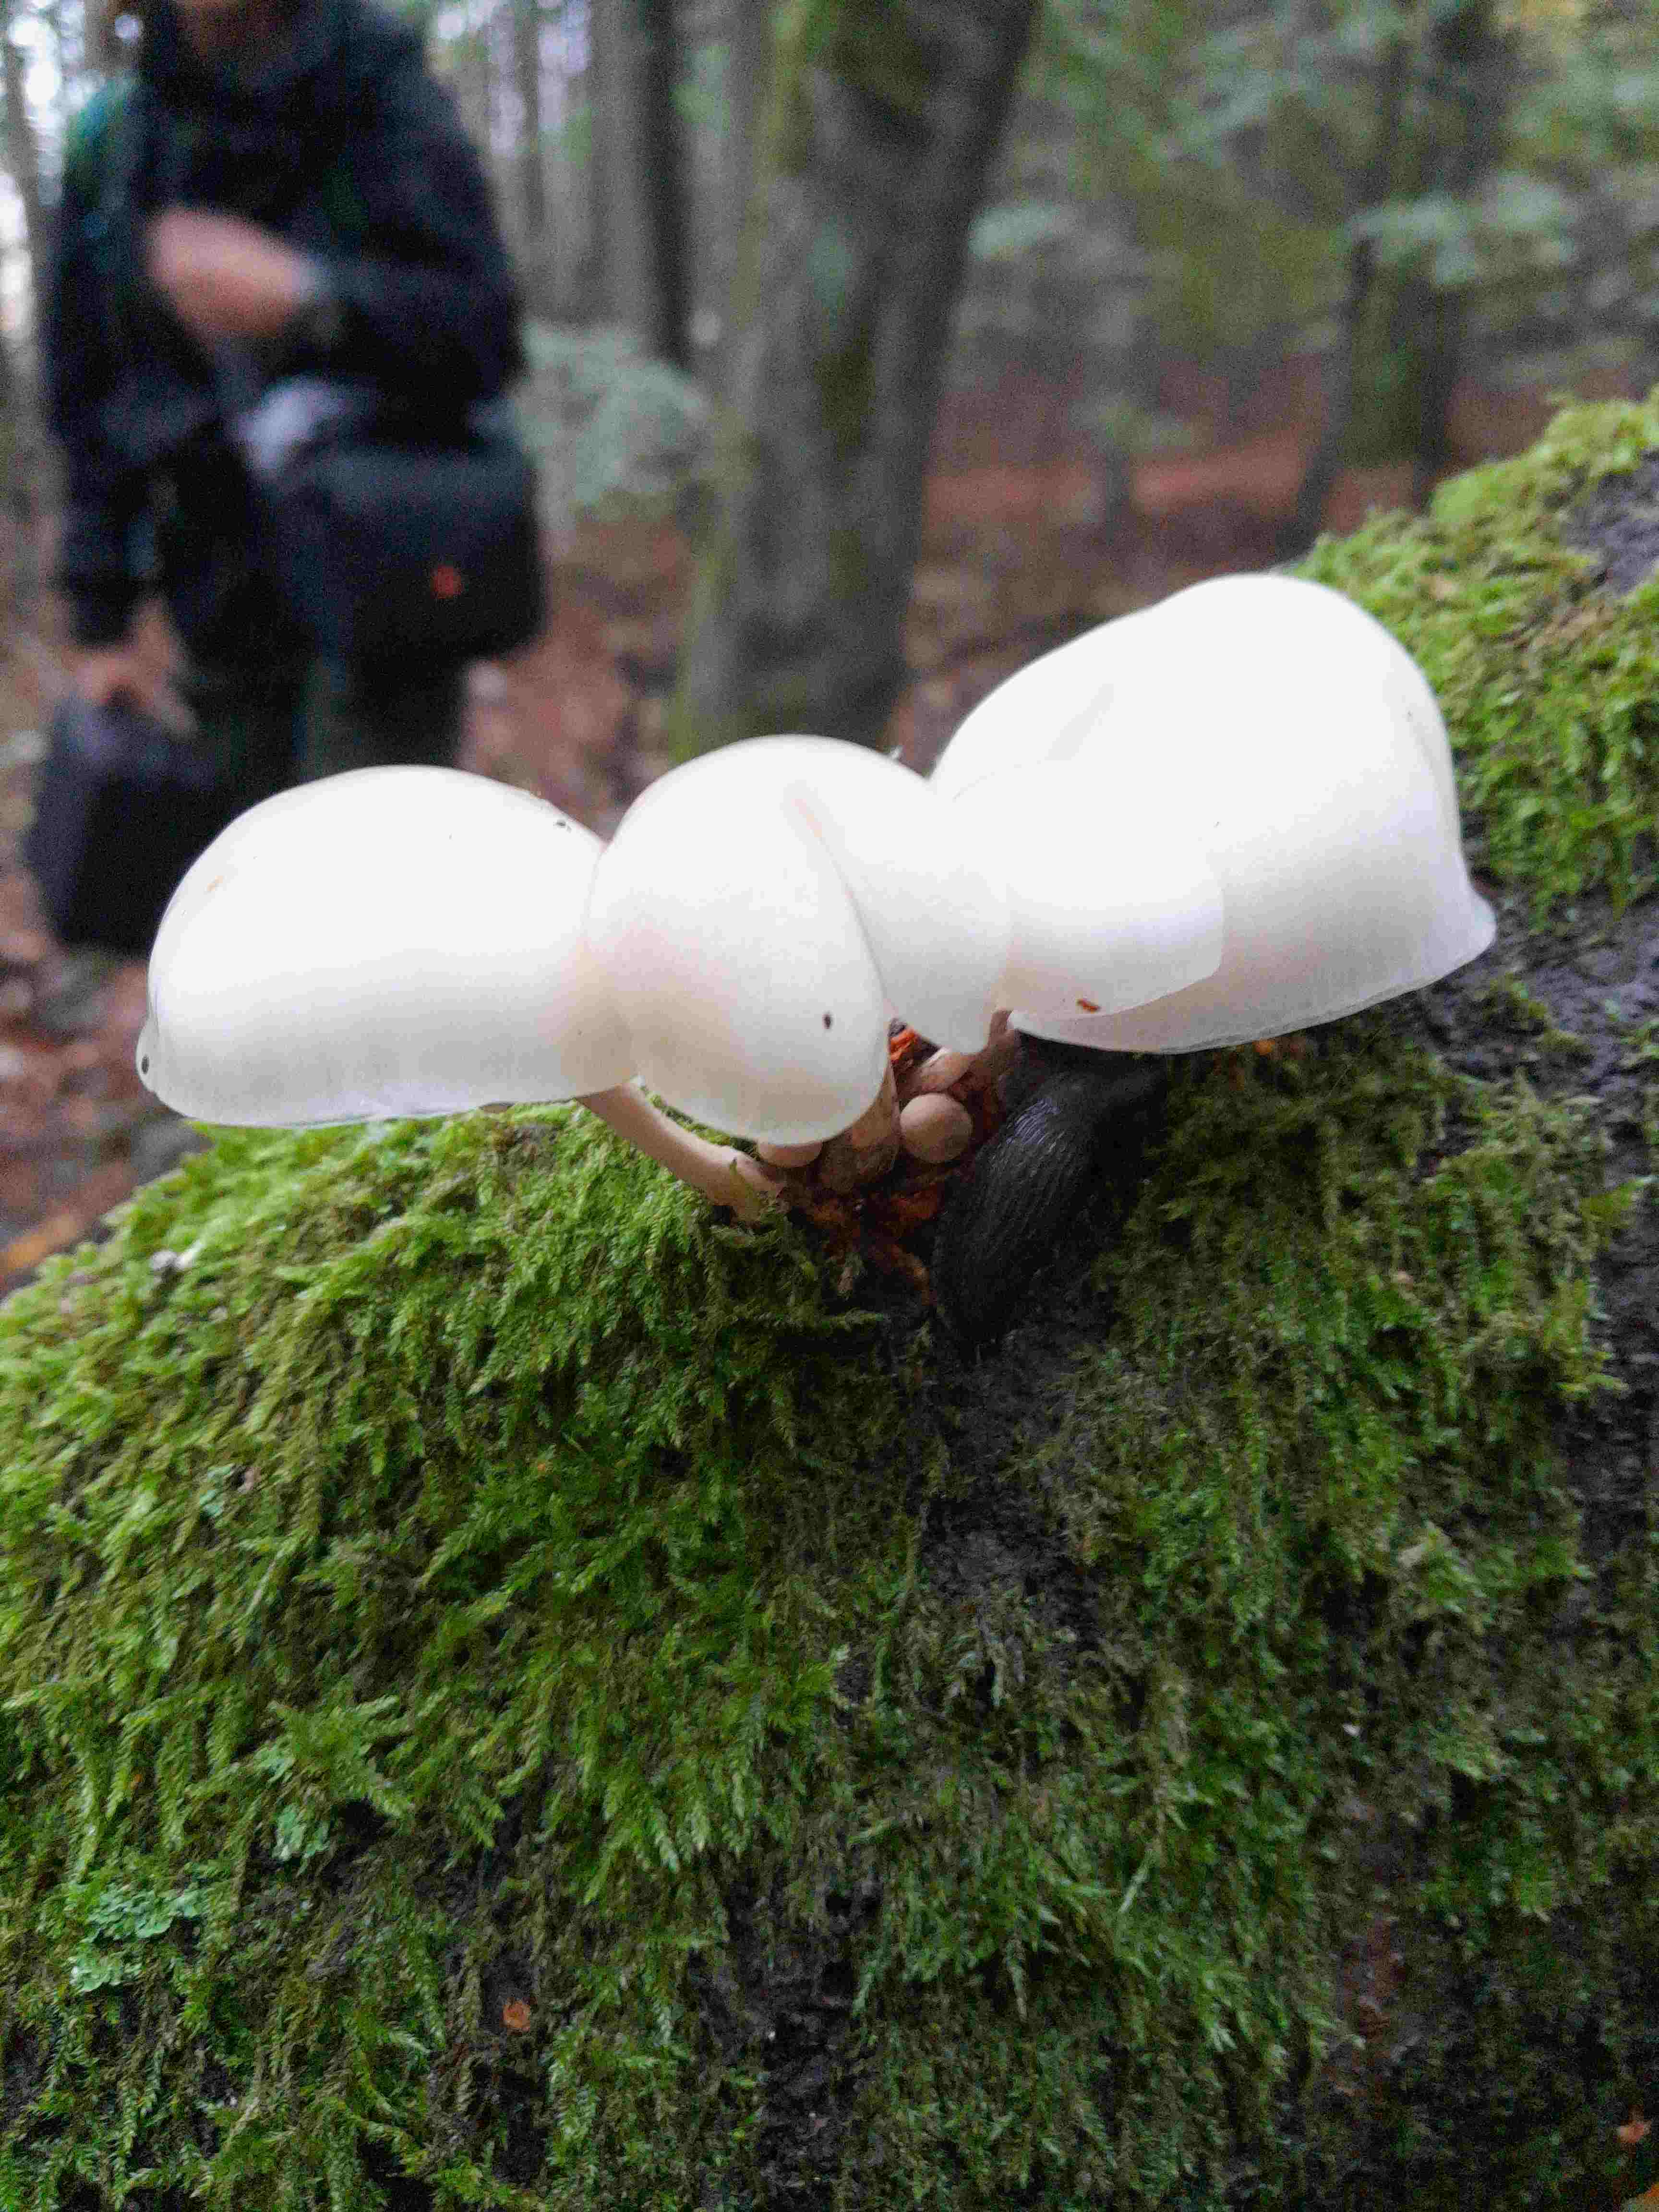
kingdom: Fungi
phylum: Basidiomycota
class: Agaricomycetes
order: Agaricales
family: Physalacriaceae
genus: Mucidula
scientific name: Mucidula mucida
